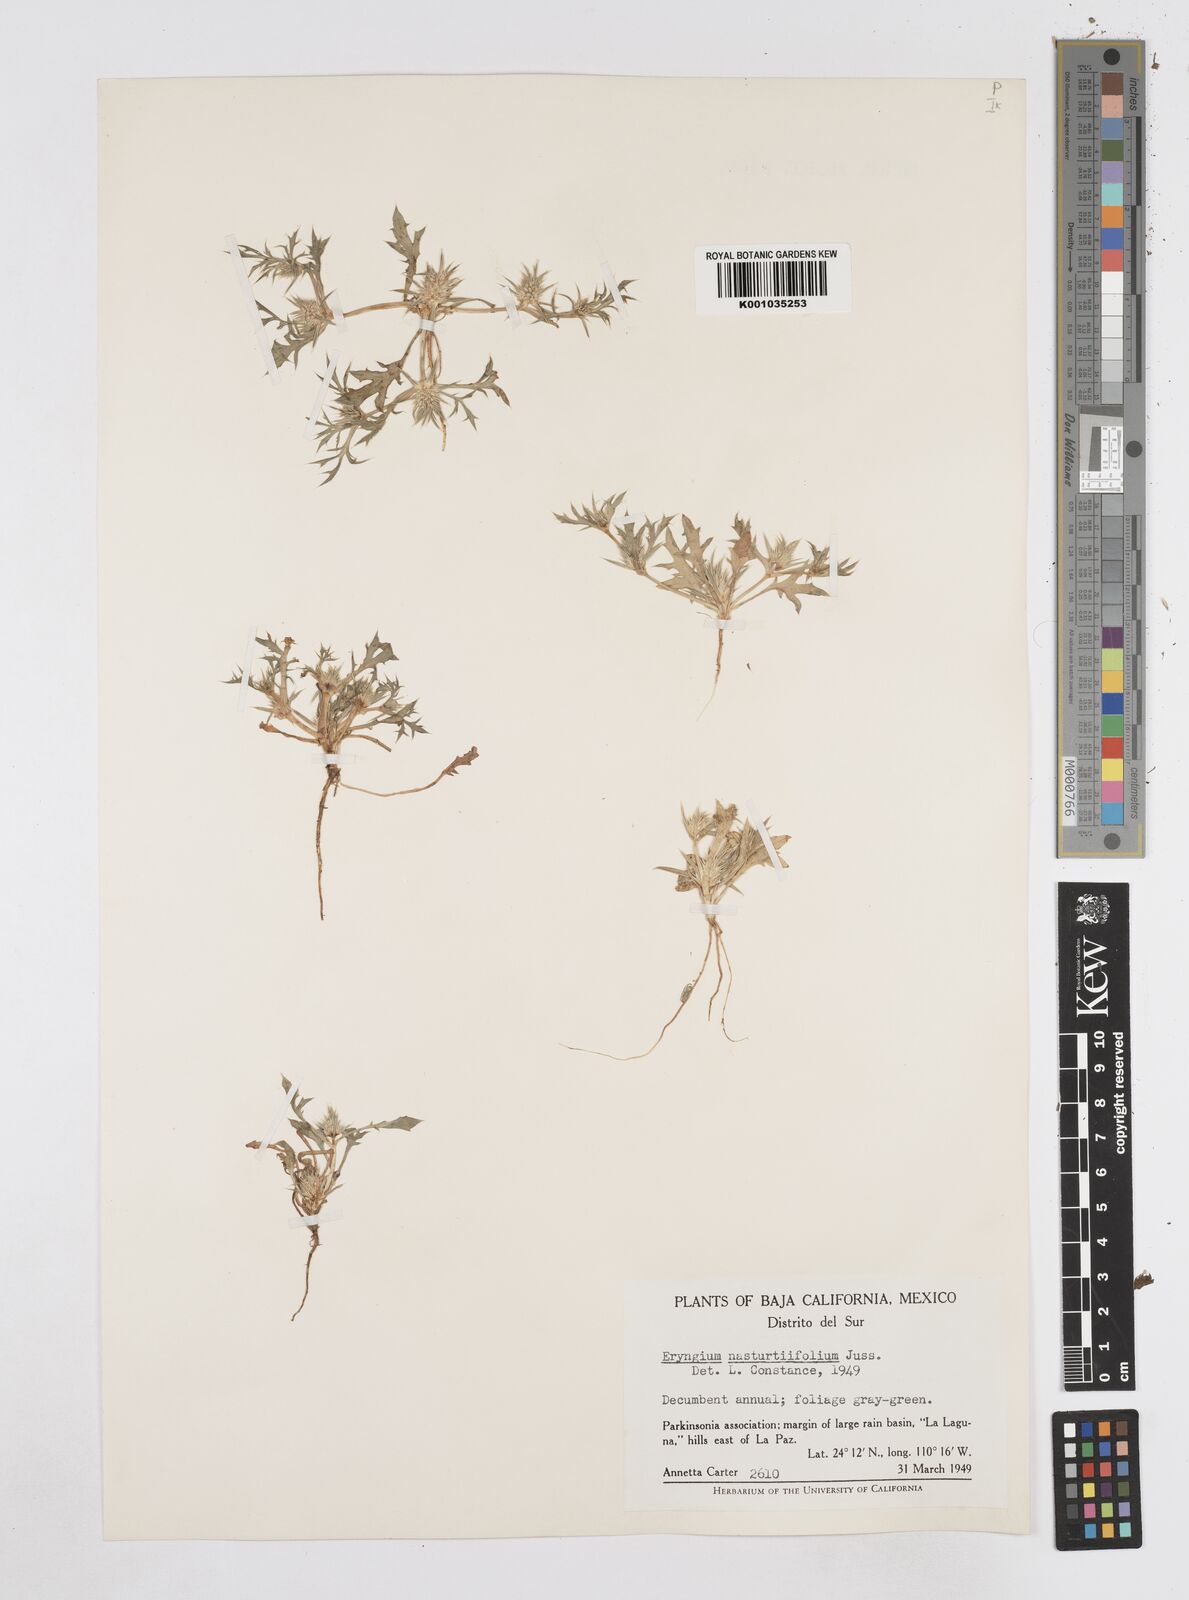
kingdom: Plantae
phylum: Tracheophyta
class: Magnoliopsida
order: Apiales
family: Apiaceae
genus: Eryngium
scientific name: Eryngium nasturtiifolium
